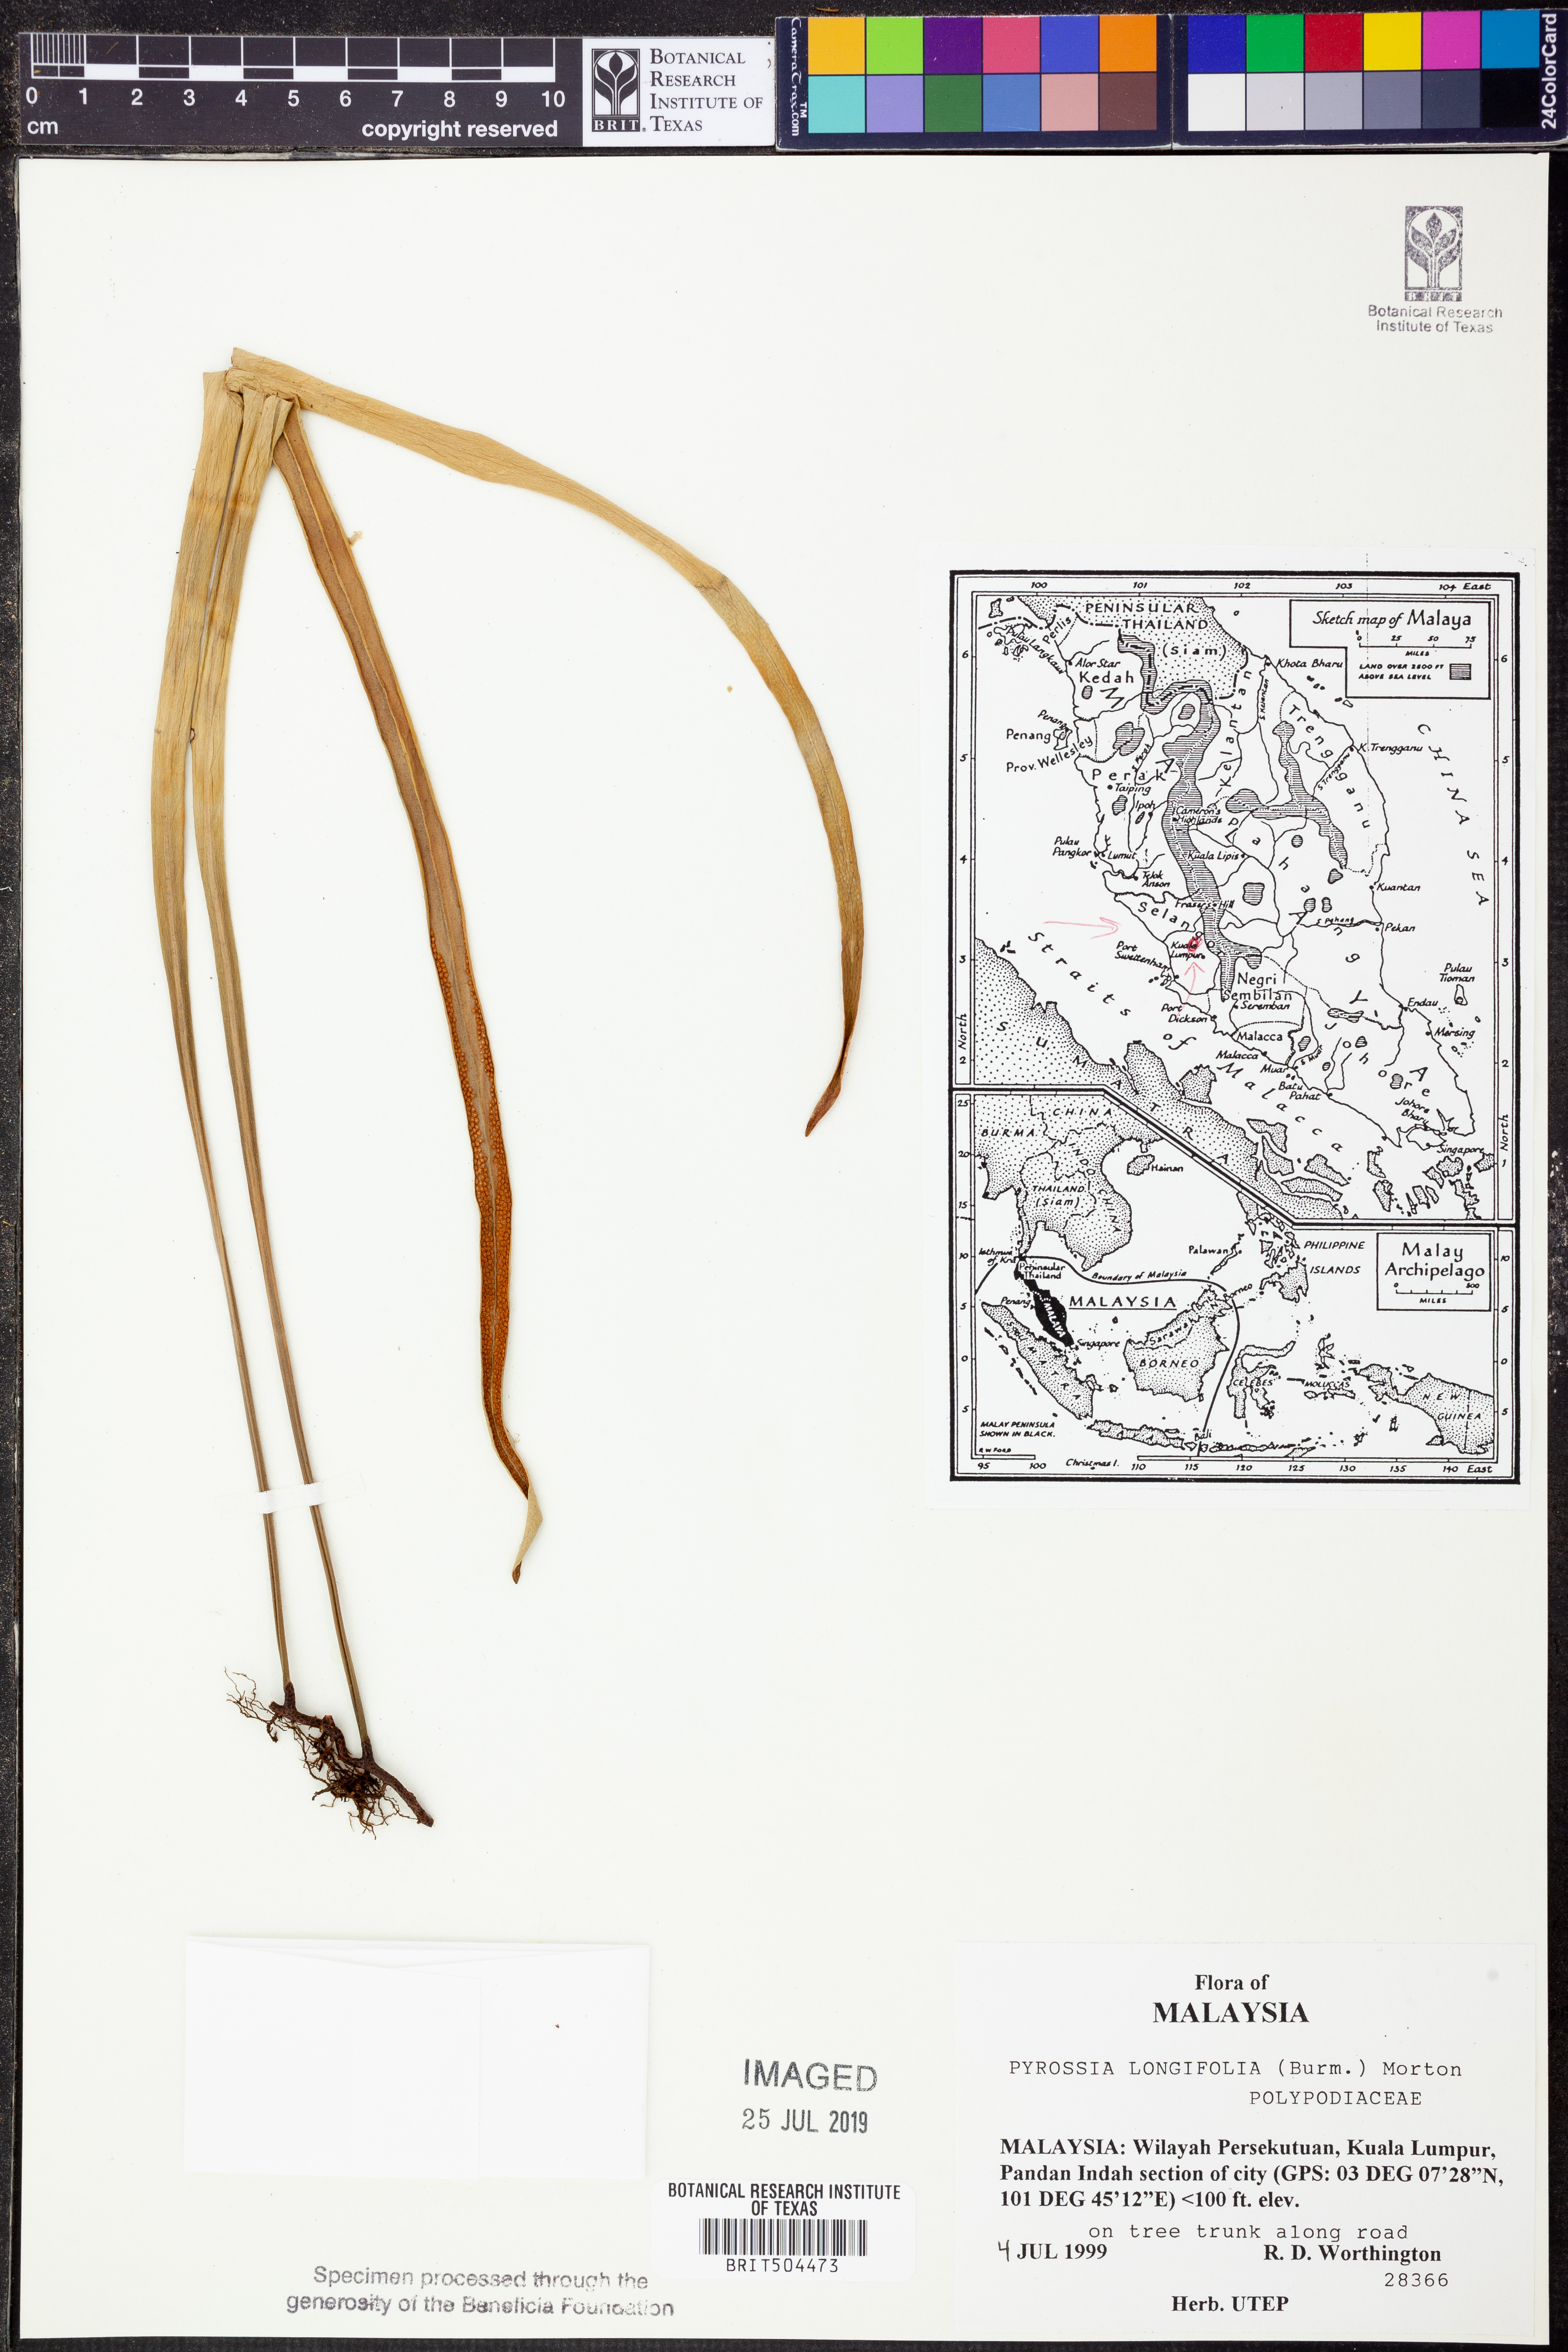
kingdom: Plantae
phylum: Tracheophyta
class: Polypodiopsida
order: Polypodiales
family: Polypodiaceae
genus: Pyrrosia
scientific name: Pyrrosia longifolia
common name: Long-leaved felt fern
